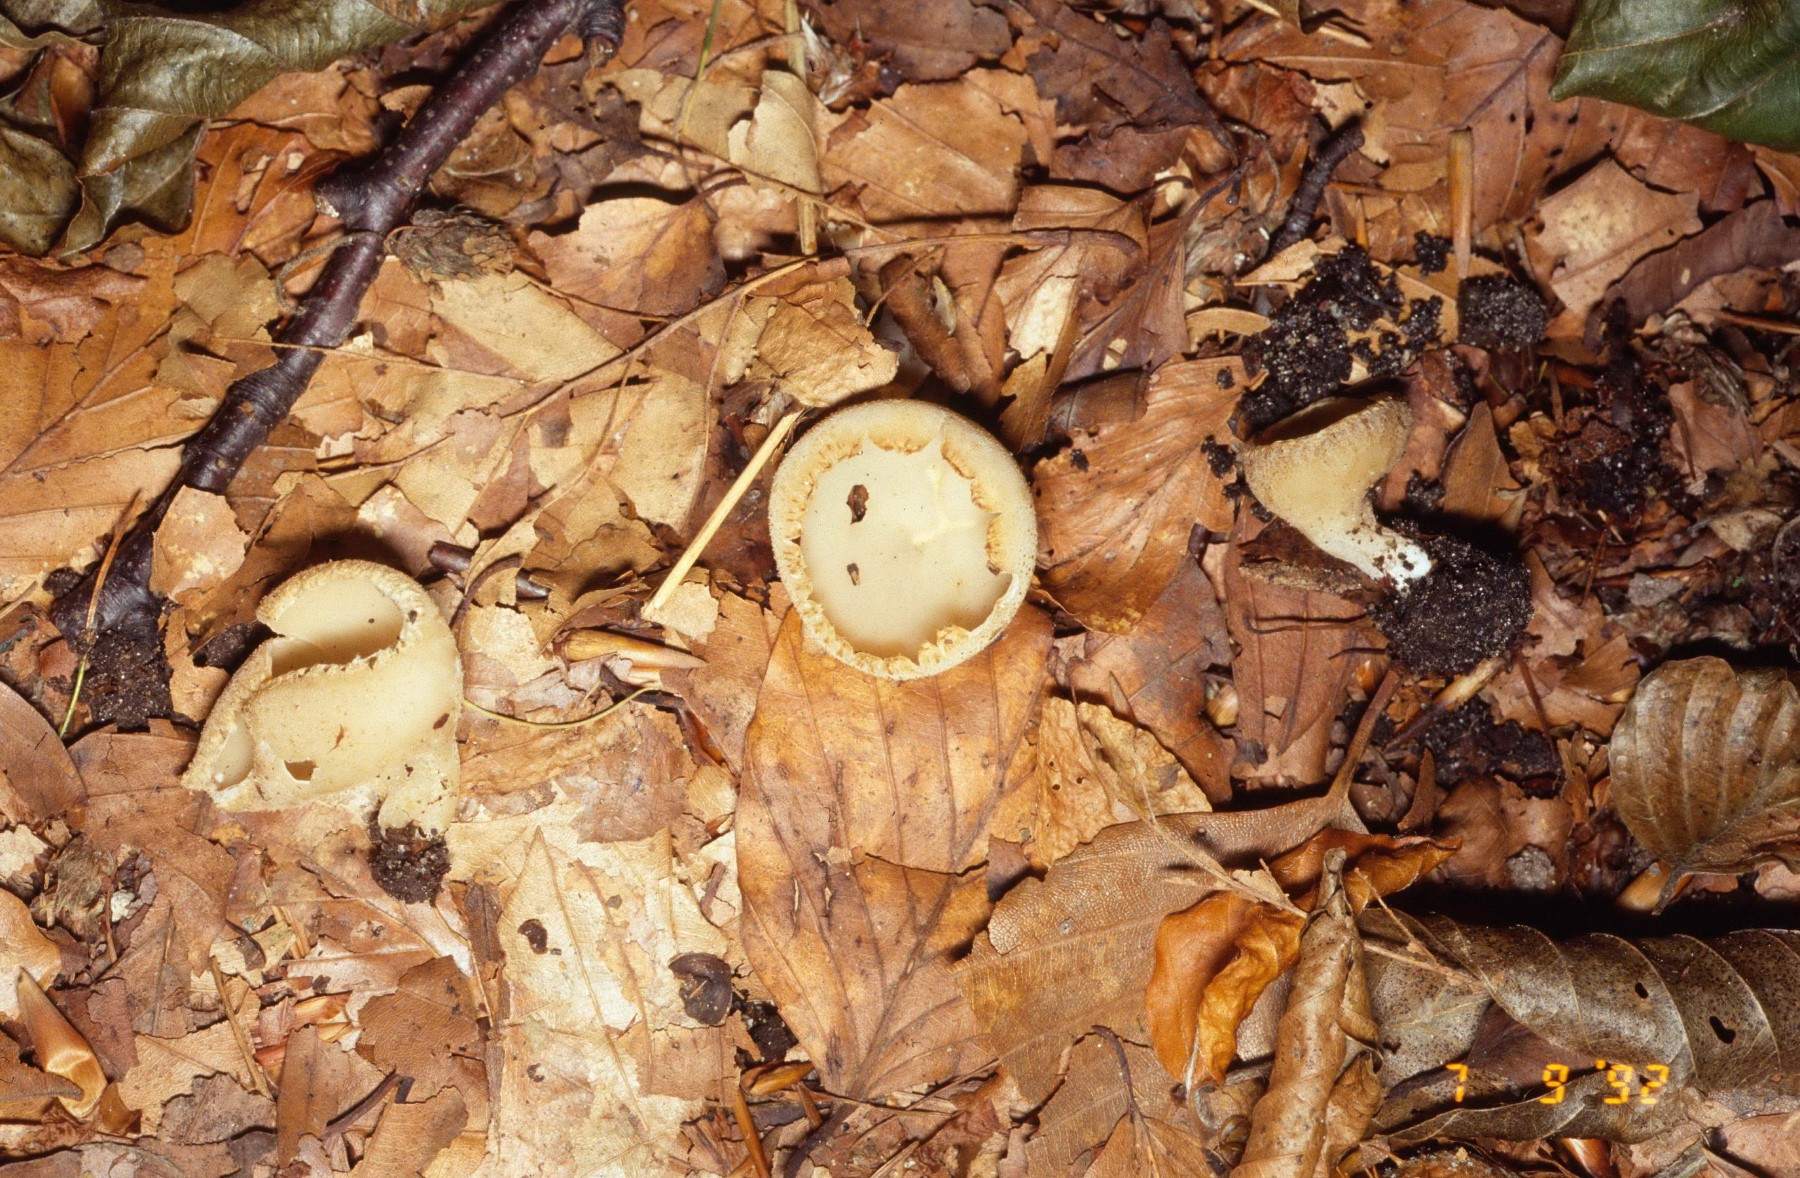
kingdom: Fungi
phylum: Ascomycota
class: Pezizomycetes
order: Pezizales
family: Pyronemataceae
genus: Tarzetta
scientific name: Tarzetta cupularis
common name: gulbrun pokalbæger
